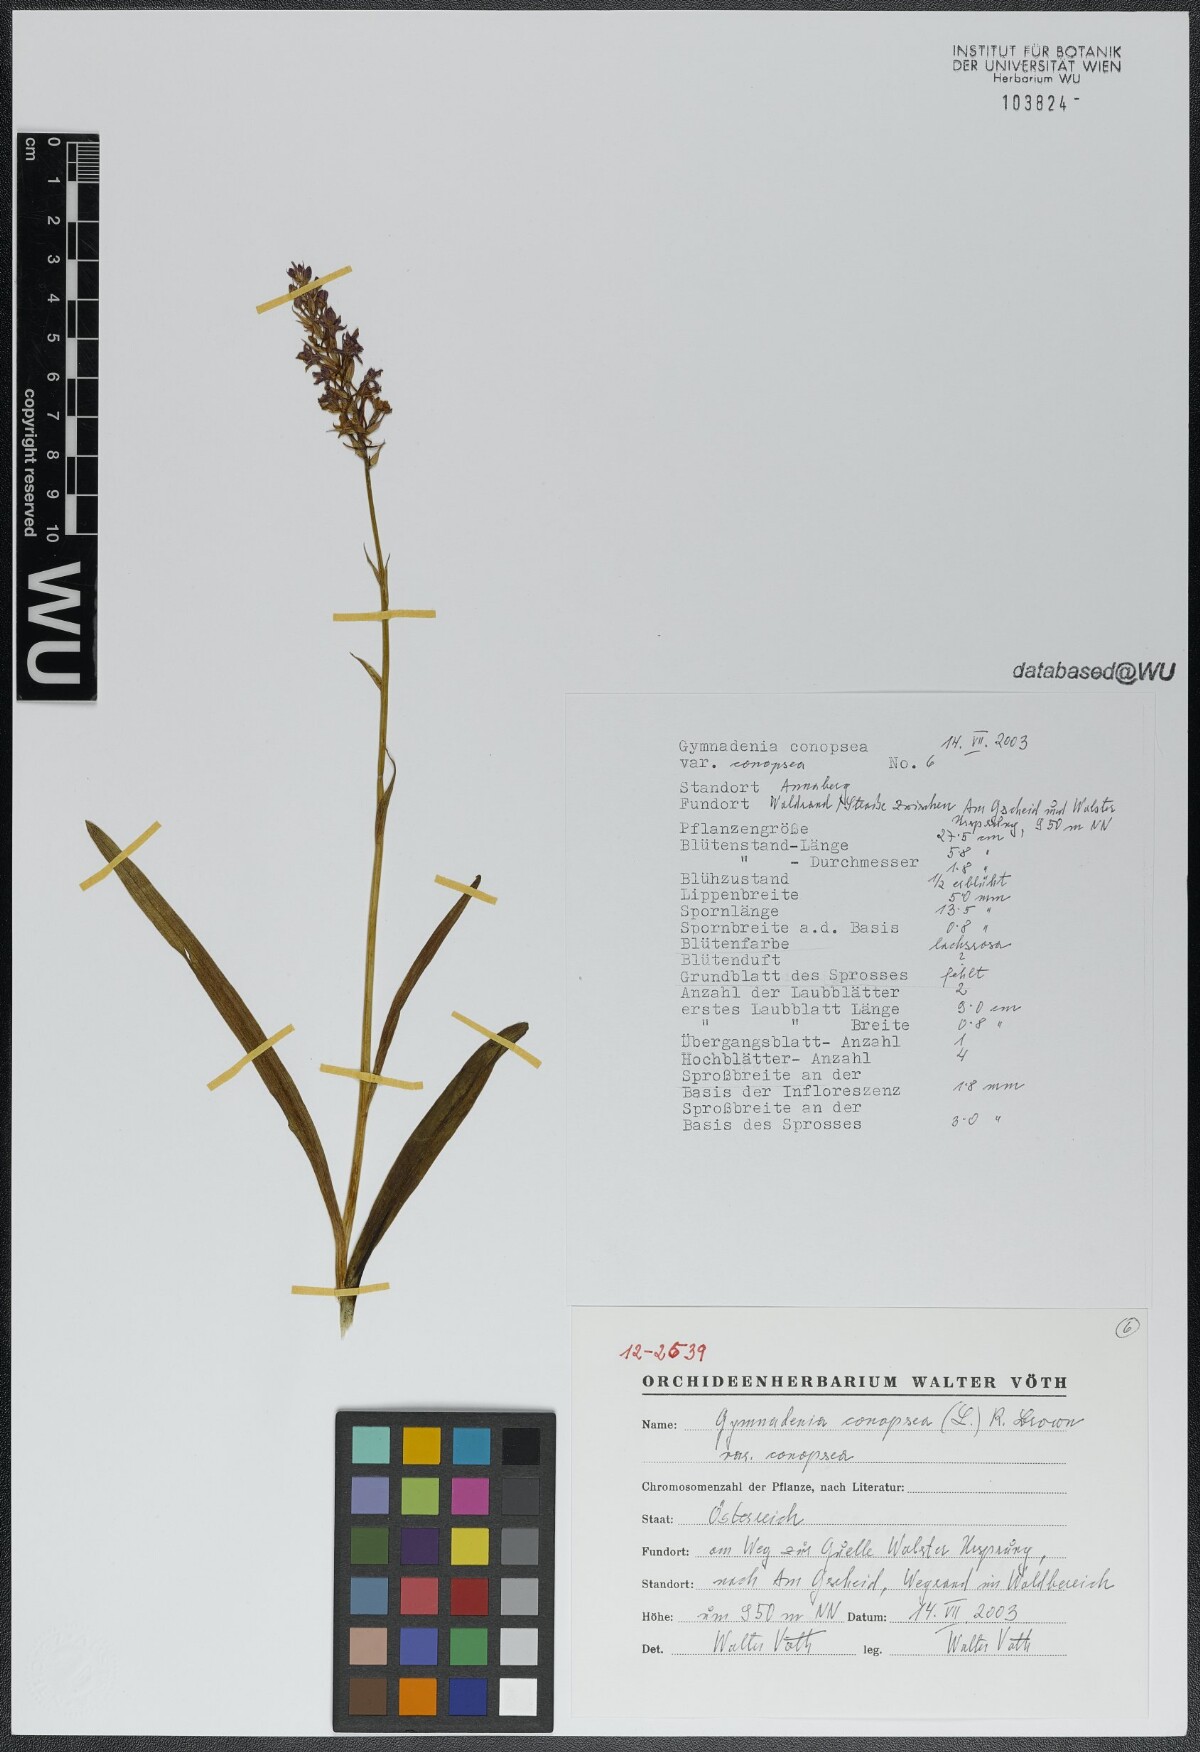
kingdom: Plantae
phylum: Tracheophyta
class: Liliopsida
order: Asparagales
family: Orchidaceae
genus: Gymnadenia
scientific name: Gymnadenia conopsea
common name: Fragrant orchid
